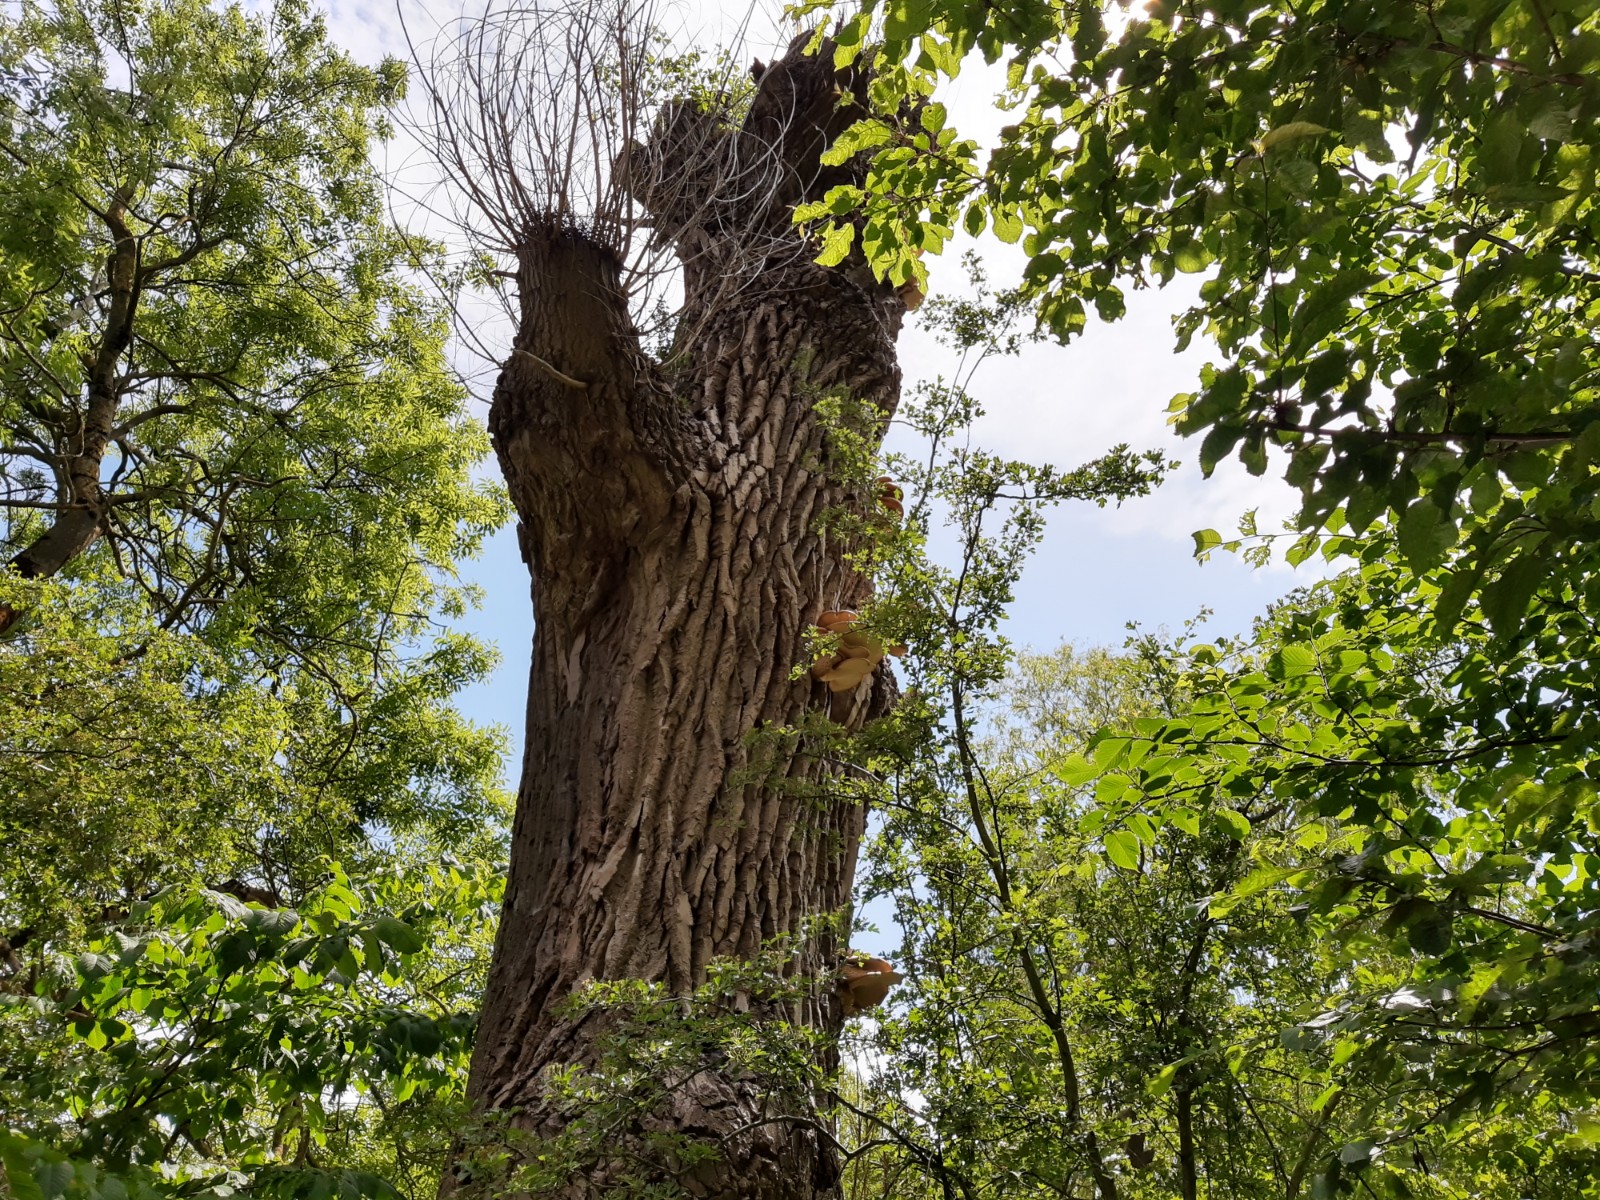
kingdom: Fungi
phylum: Basidiomycota
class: Agaricomycetes
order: Polyporales
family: Polyporaceae
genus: Cerioporus
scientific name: Cerioporus squamosus
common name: skællet stilkporesvamp
